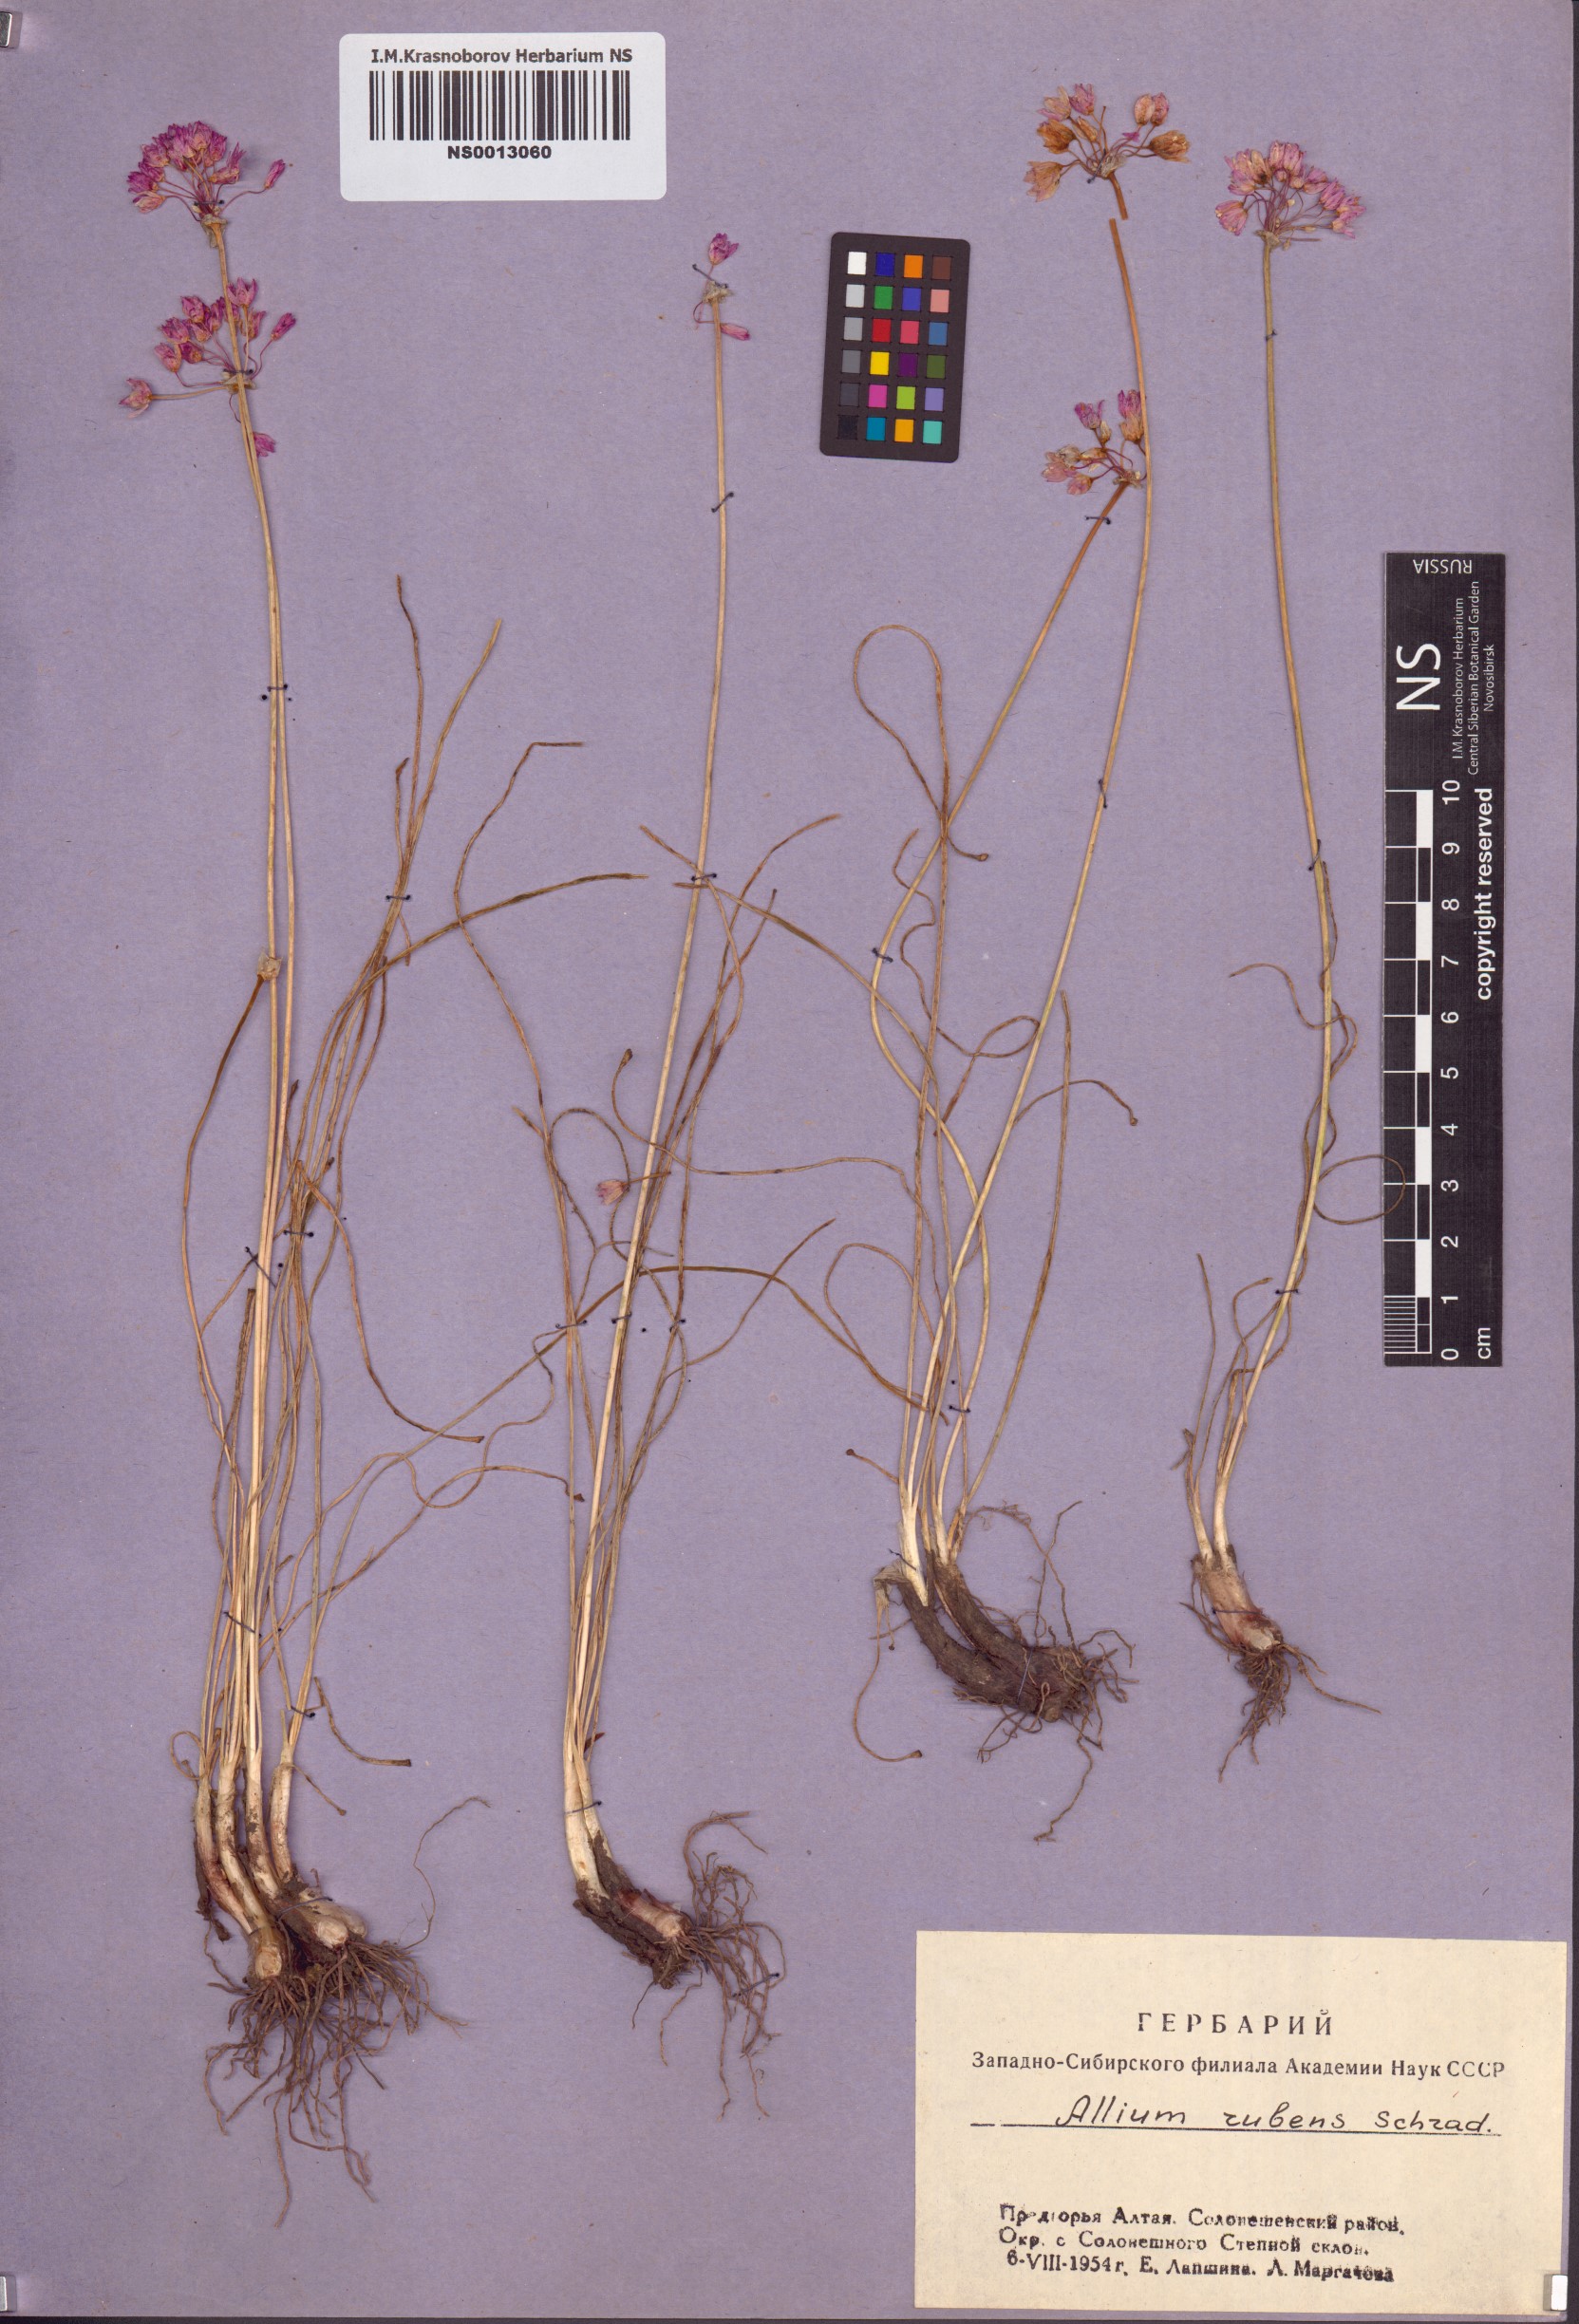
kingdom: Plantae
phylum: Tracheophyta
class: Liliopsida
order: Asparagales
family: Amaryllidaceae
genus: Allium
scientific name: Allium rubens
